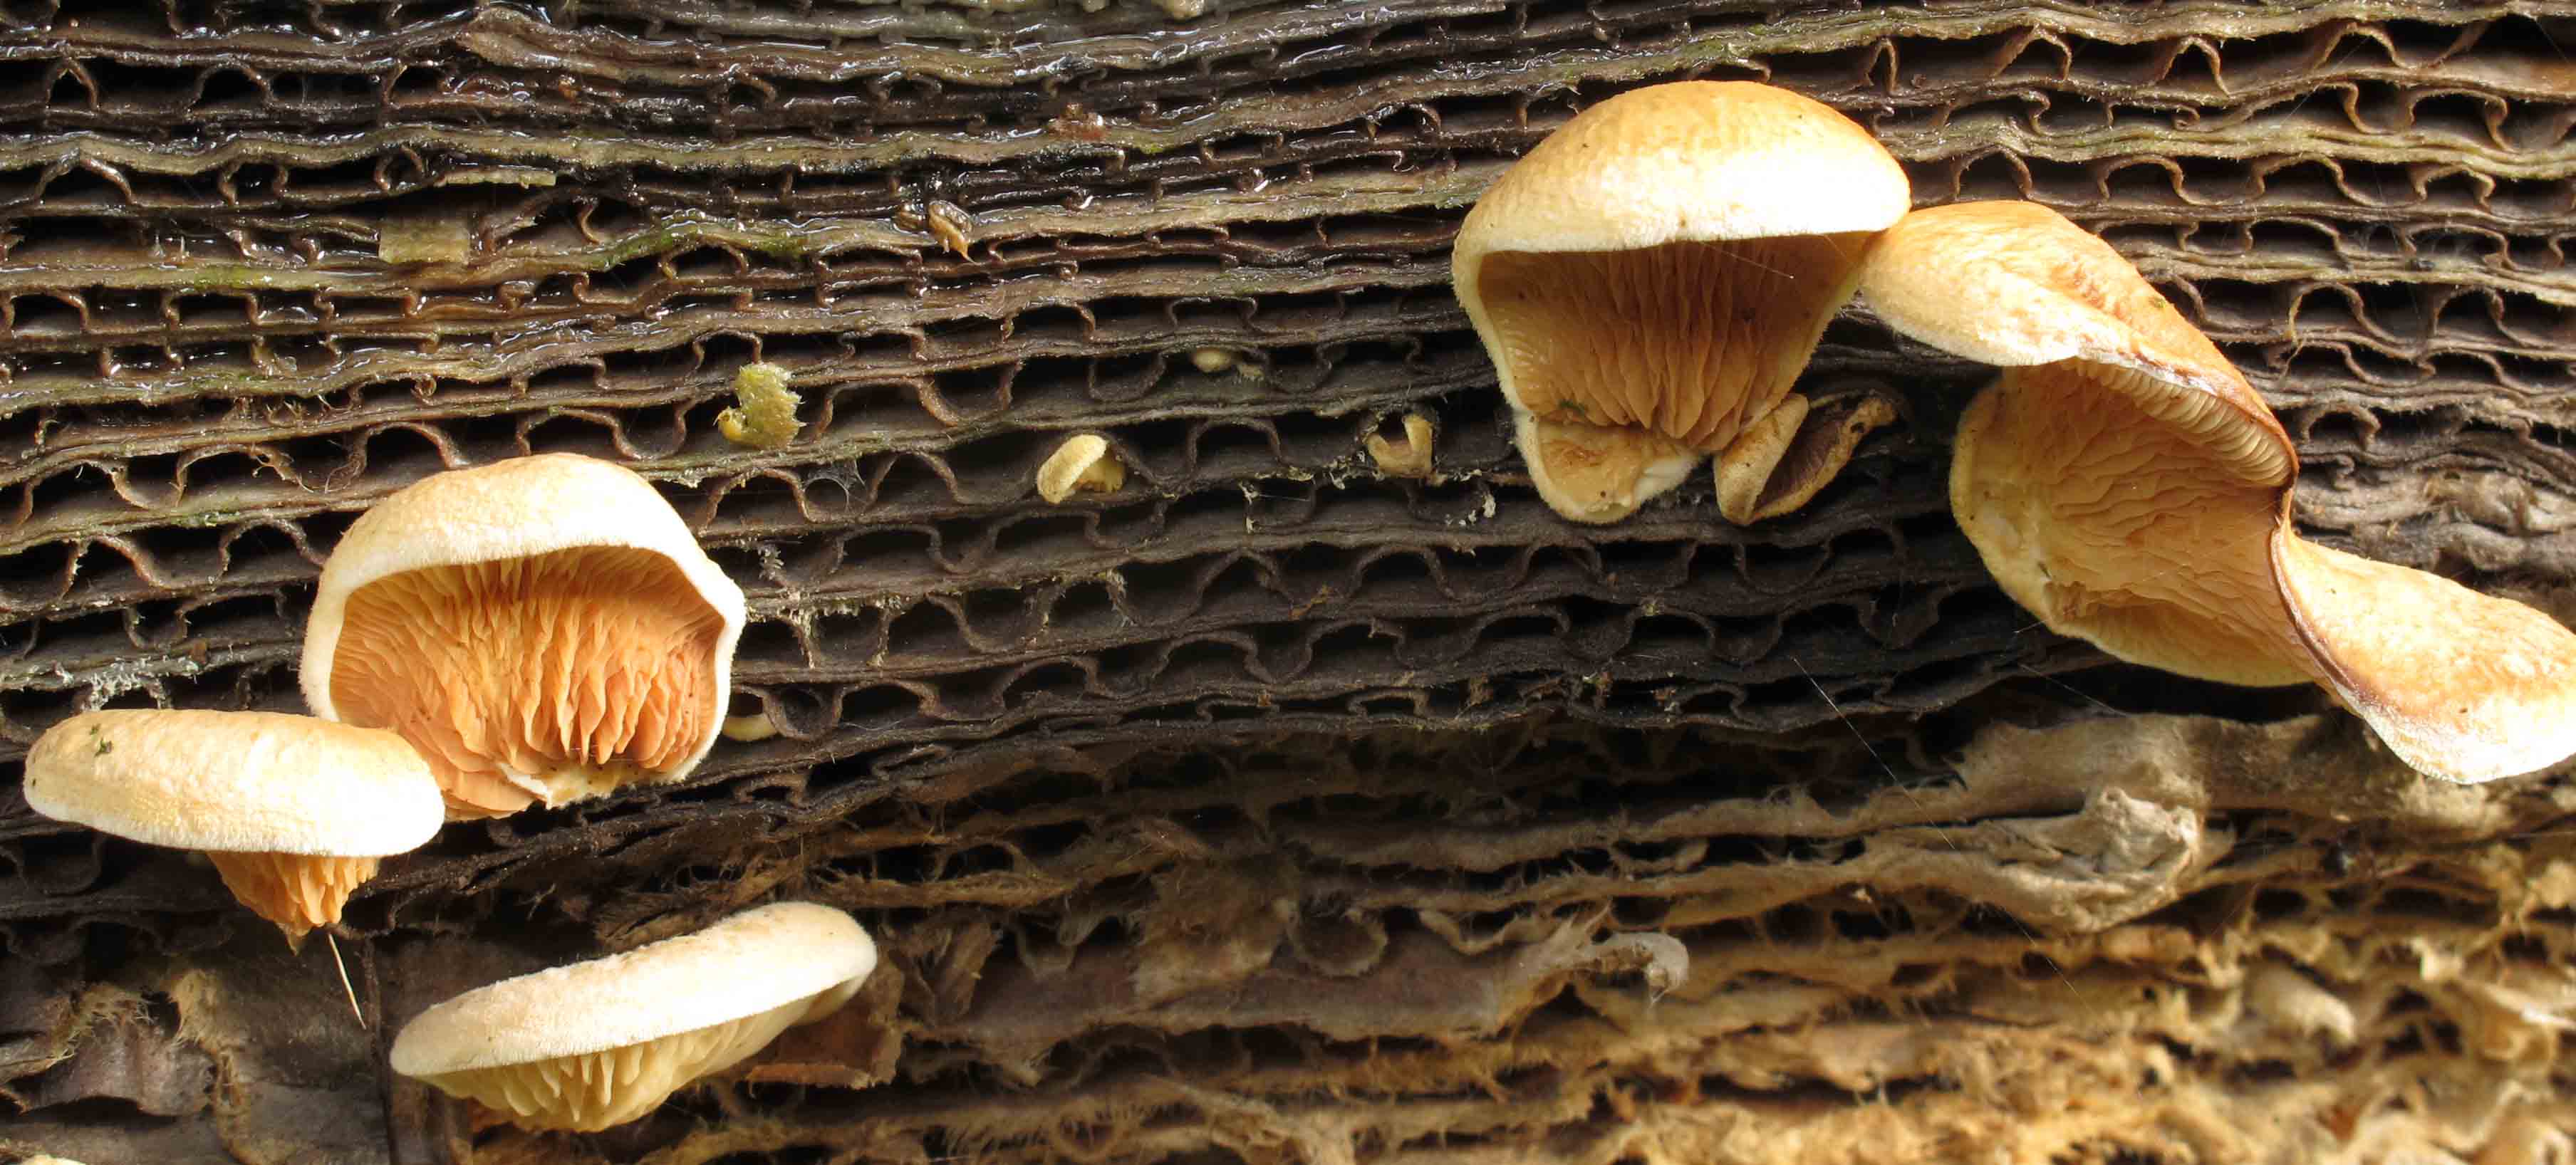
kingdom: Fungi
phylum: Basidiomycota
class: Agaricomycetes
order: Boletales
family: Tapinellaceae
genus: Tapinella
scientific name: Tapinella panuoides
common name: tømmer-viftesvamp
